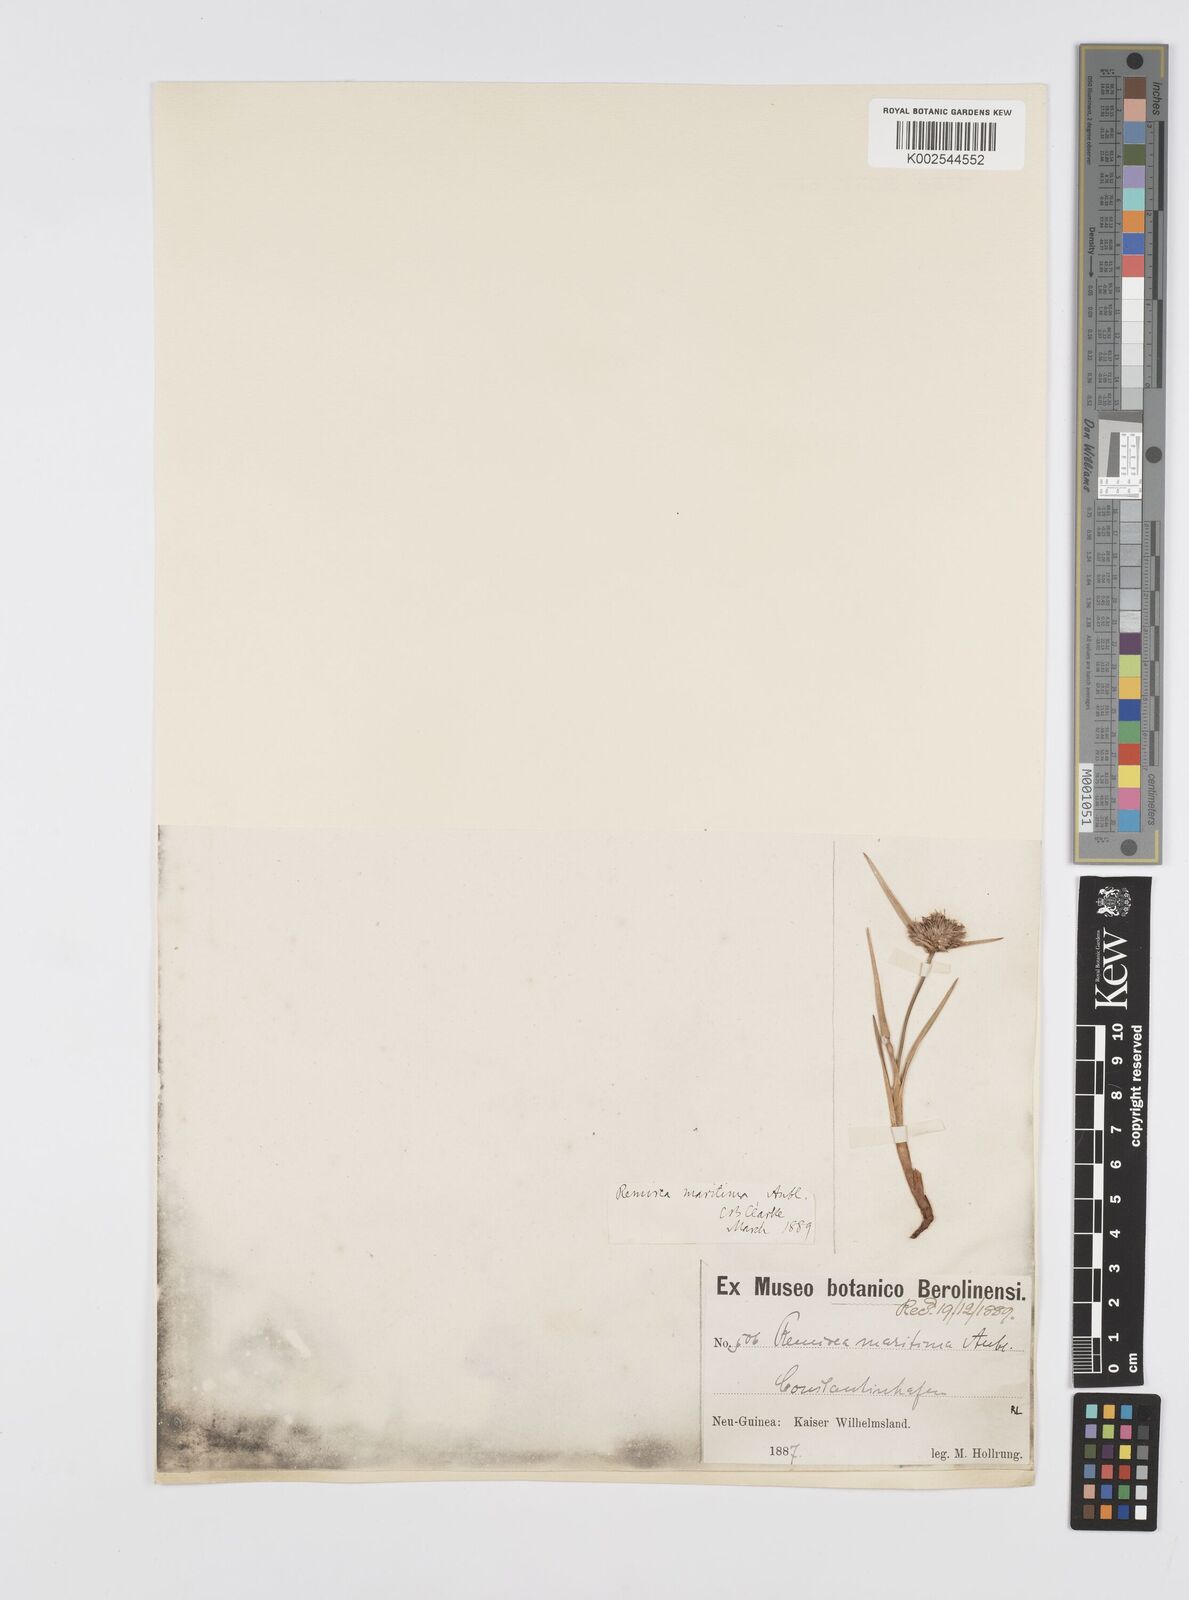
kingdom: Plantae
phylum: Tracheophyta
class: Liliopsida
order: Poales
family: Cyperaceae
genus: Cyperus
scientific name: Cyperus
